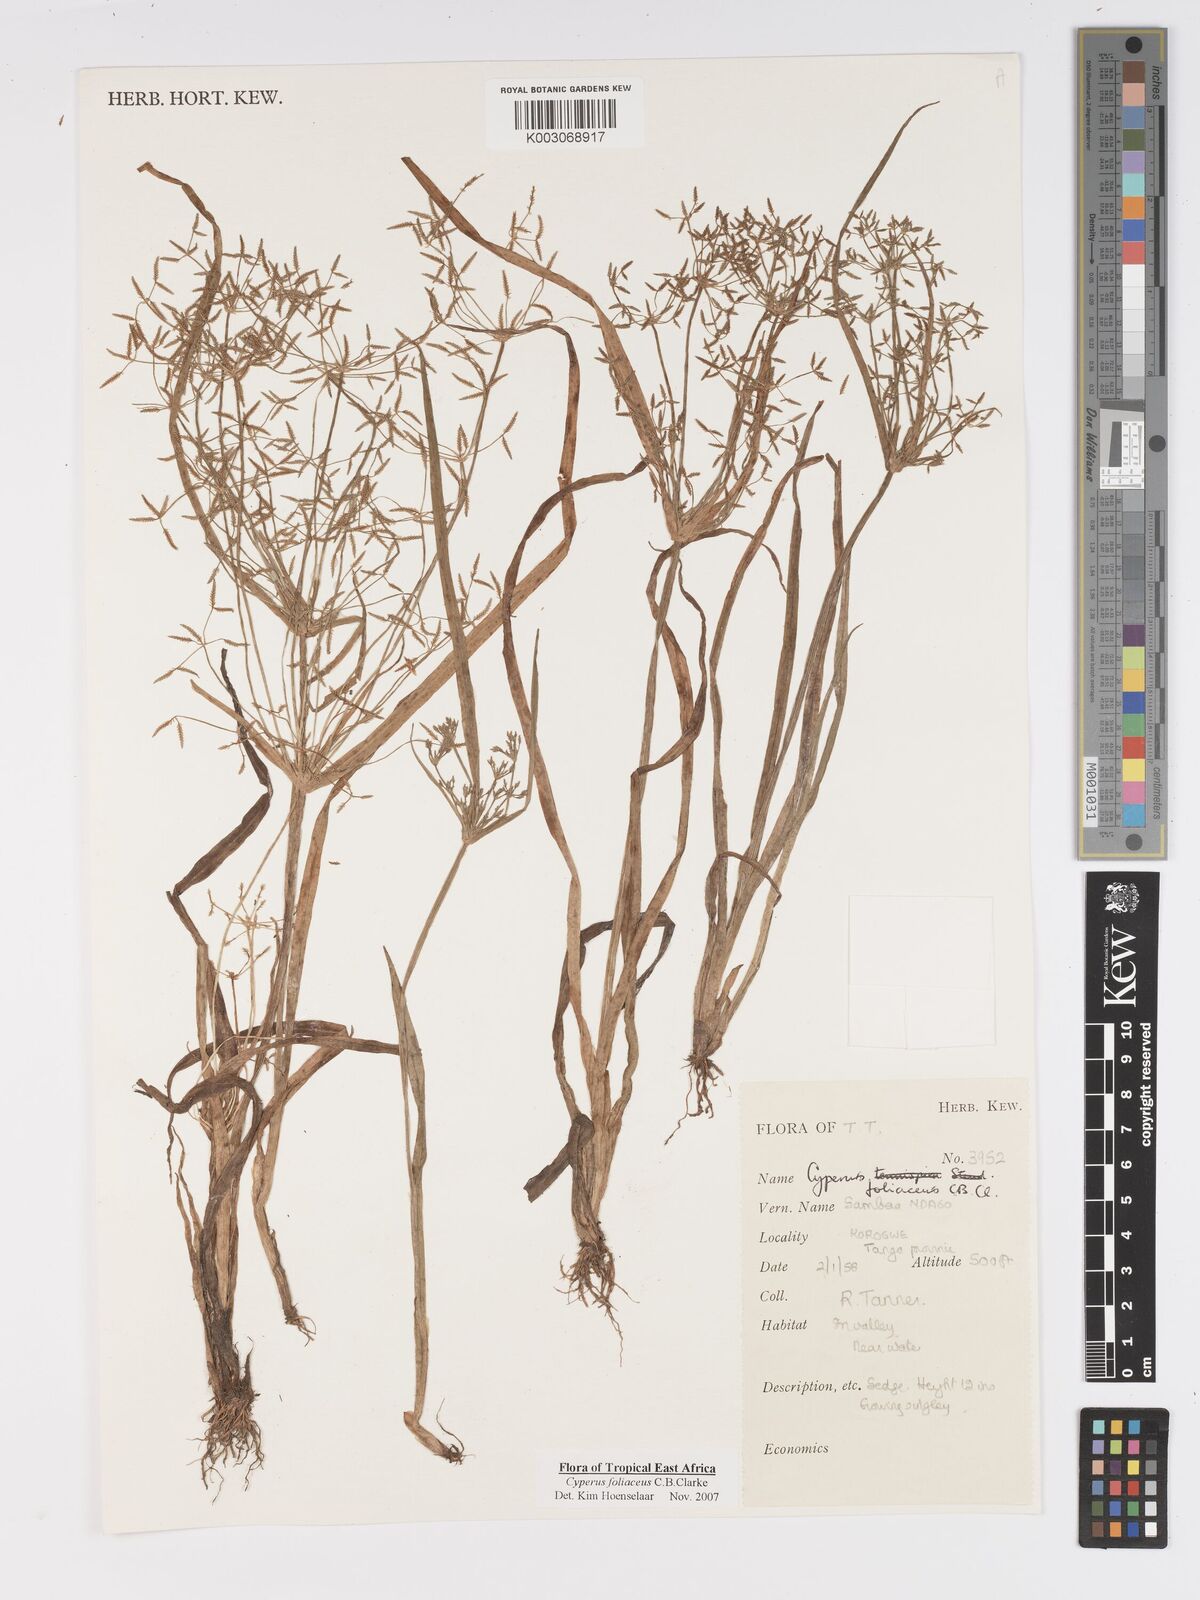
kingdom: Plantae
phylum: Tracheophyta
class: Liliopsida
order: Poales
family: Cyperaceae
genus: Cyperus
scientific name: Cyperus foliaceus
